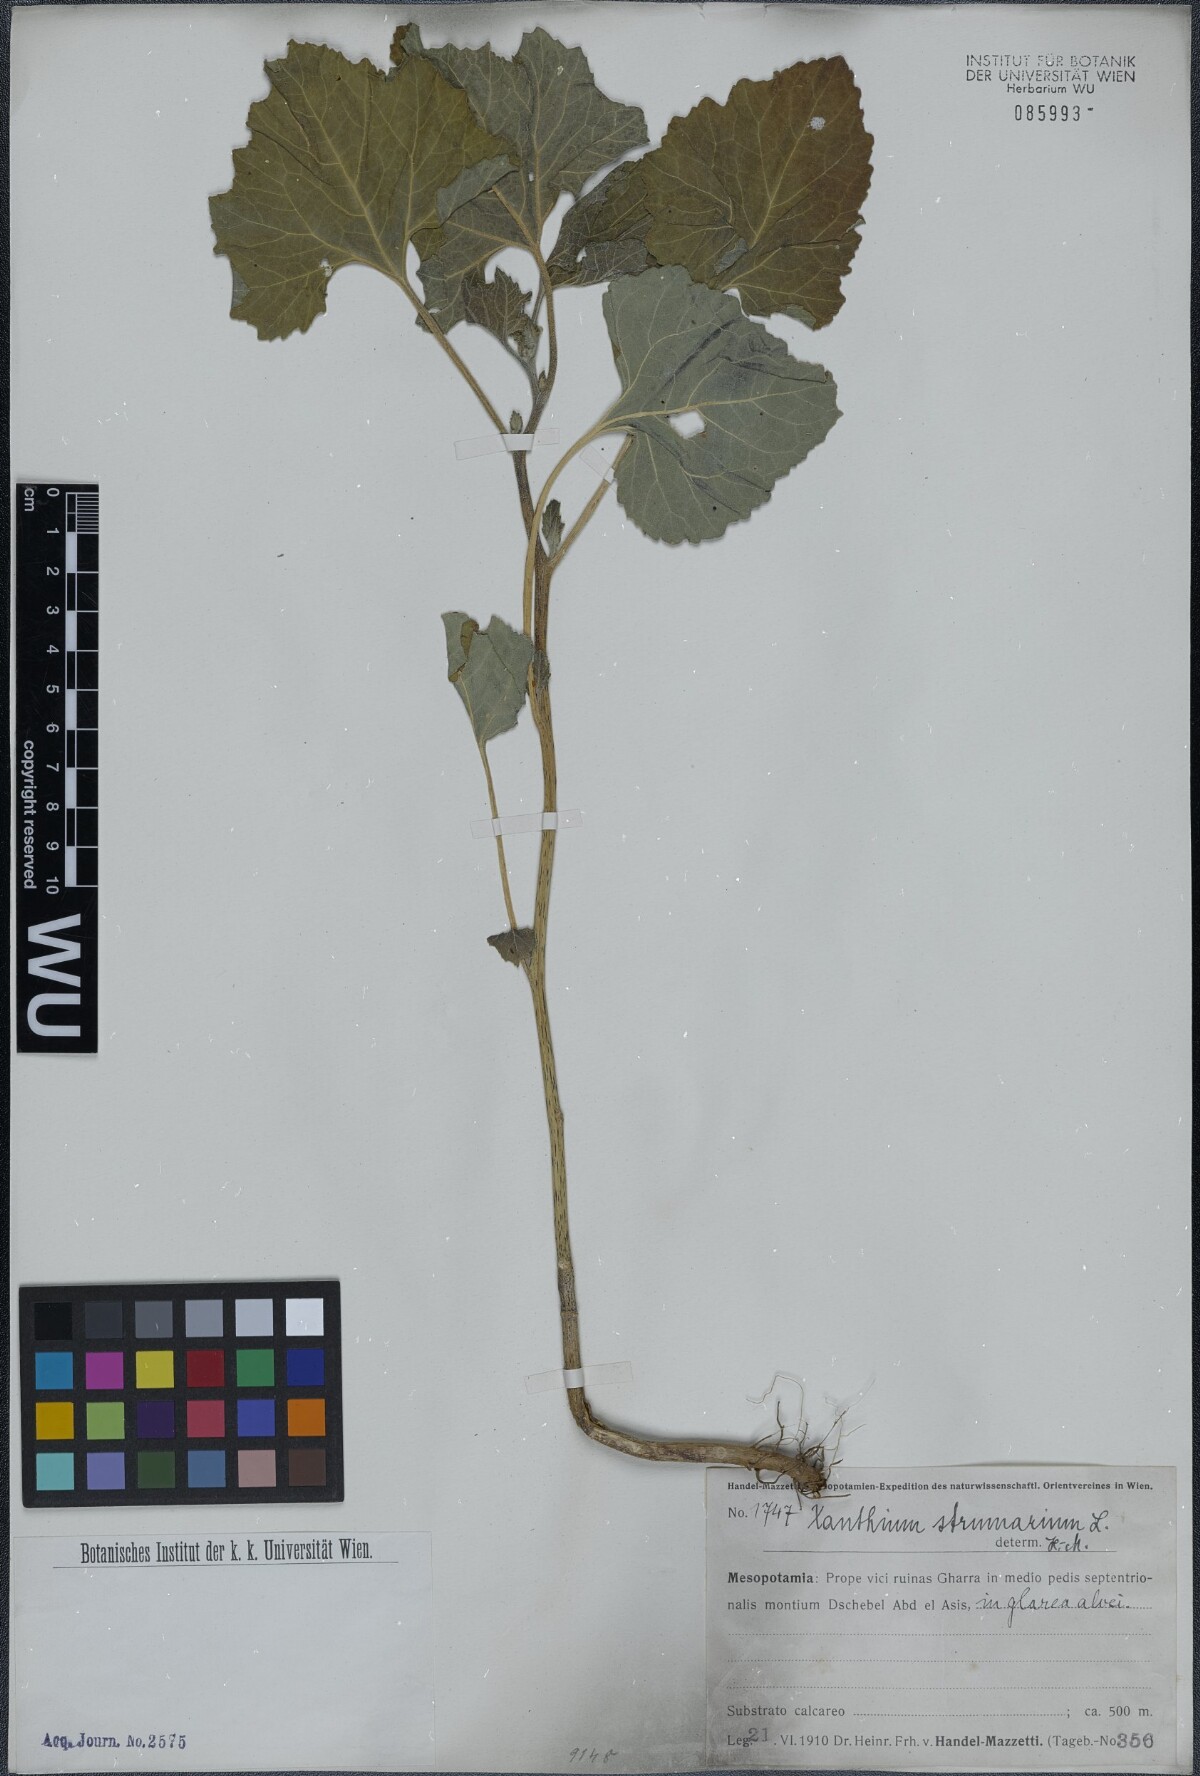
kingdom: Plantae
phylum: Tracheophyta
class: Magnoliopsida
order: Asterales
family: Asteraceae
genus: Xanthium
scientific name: Xanthium strumarium
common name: Rough cocklebur
